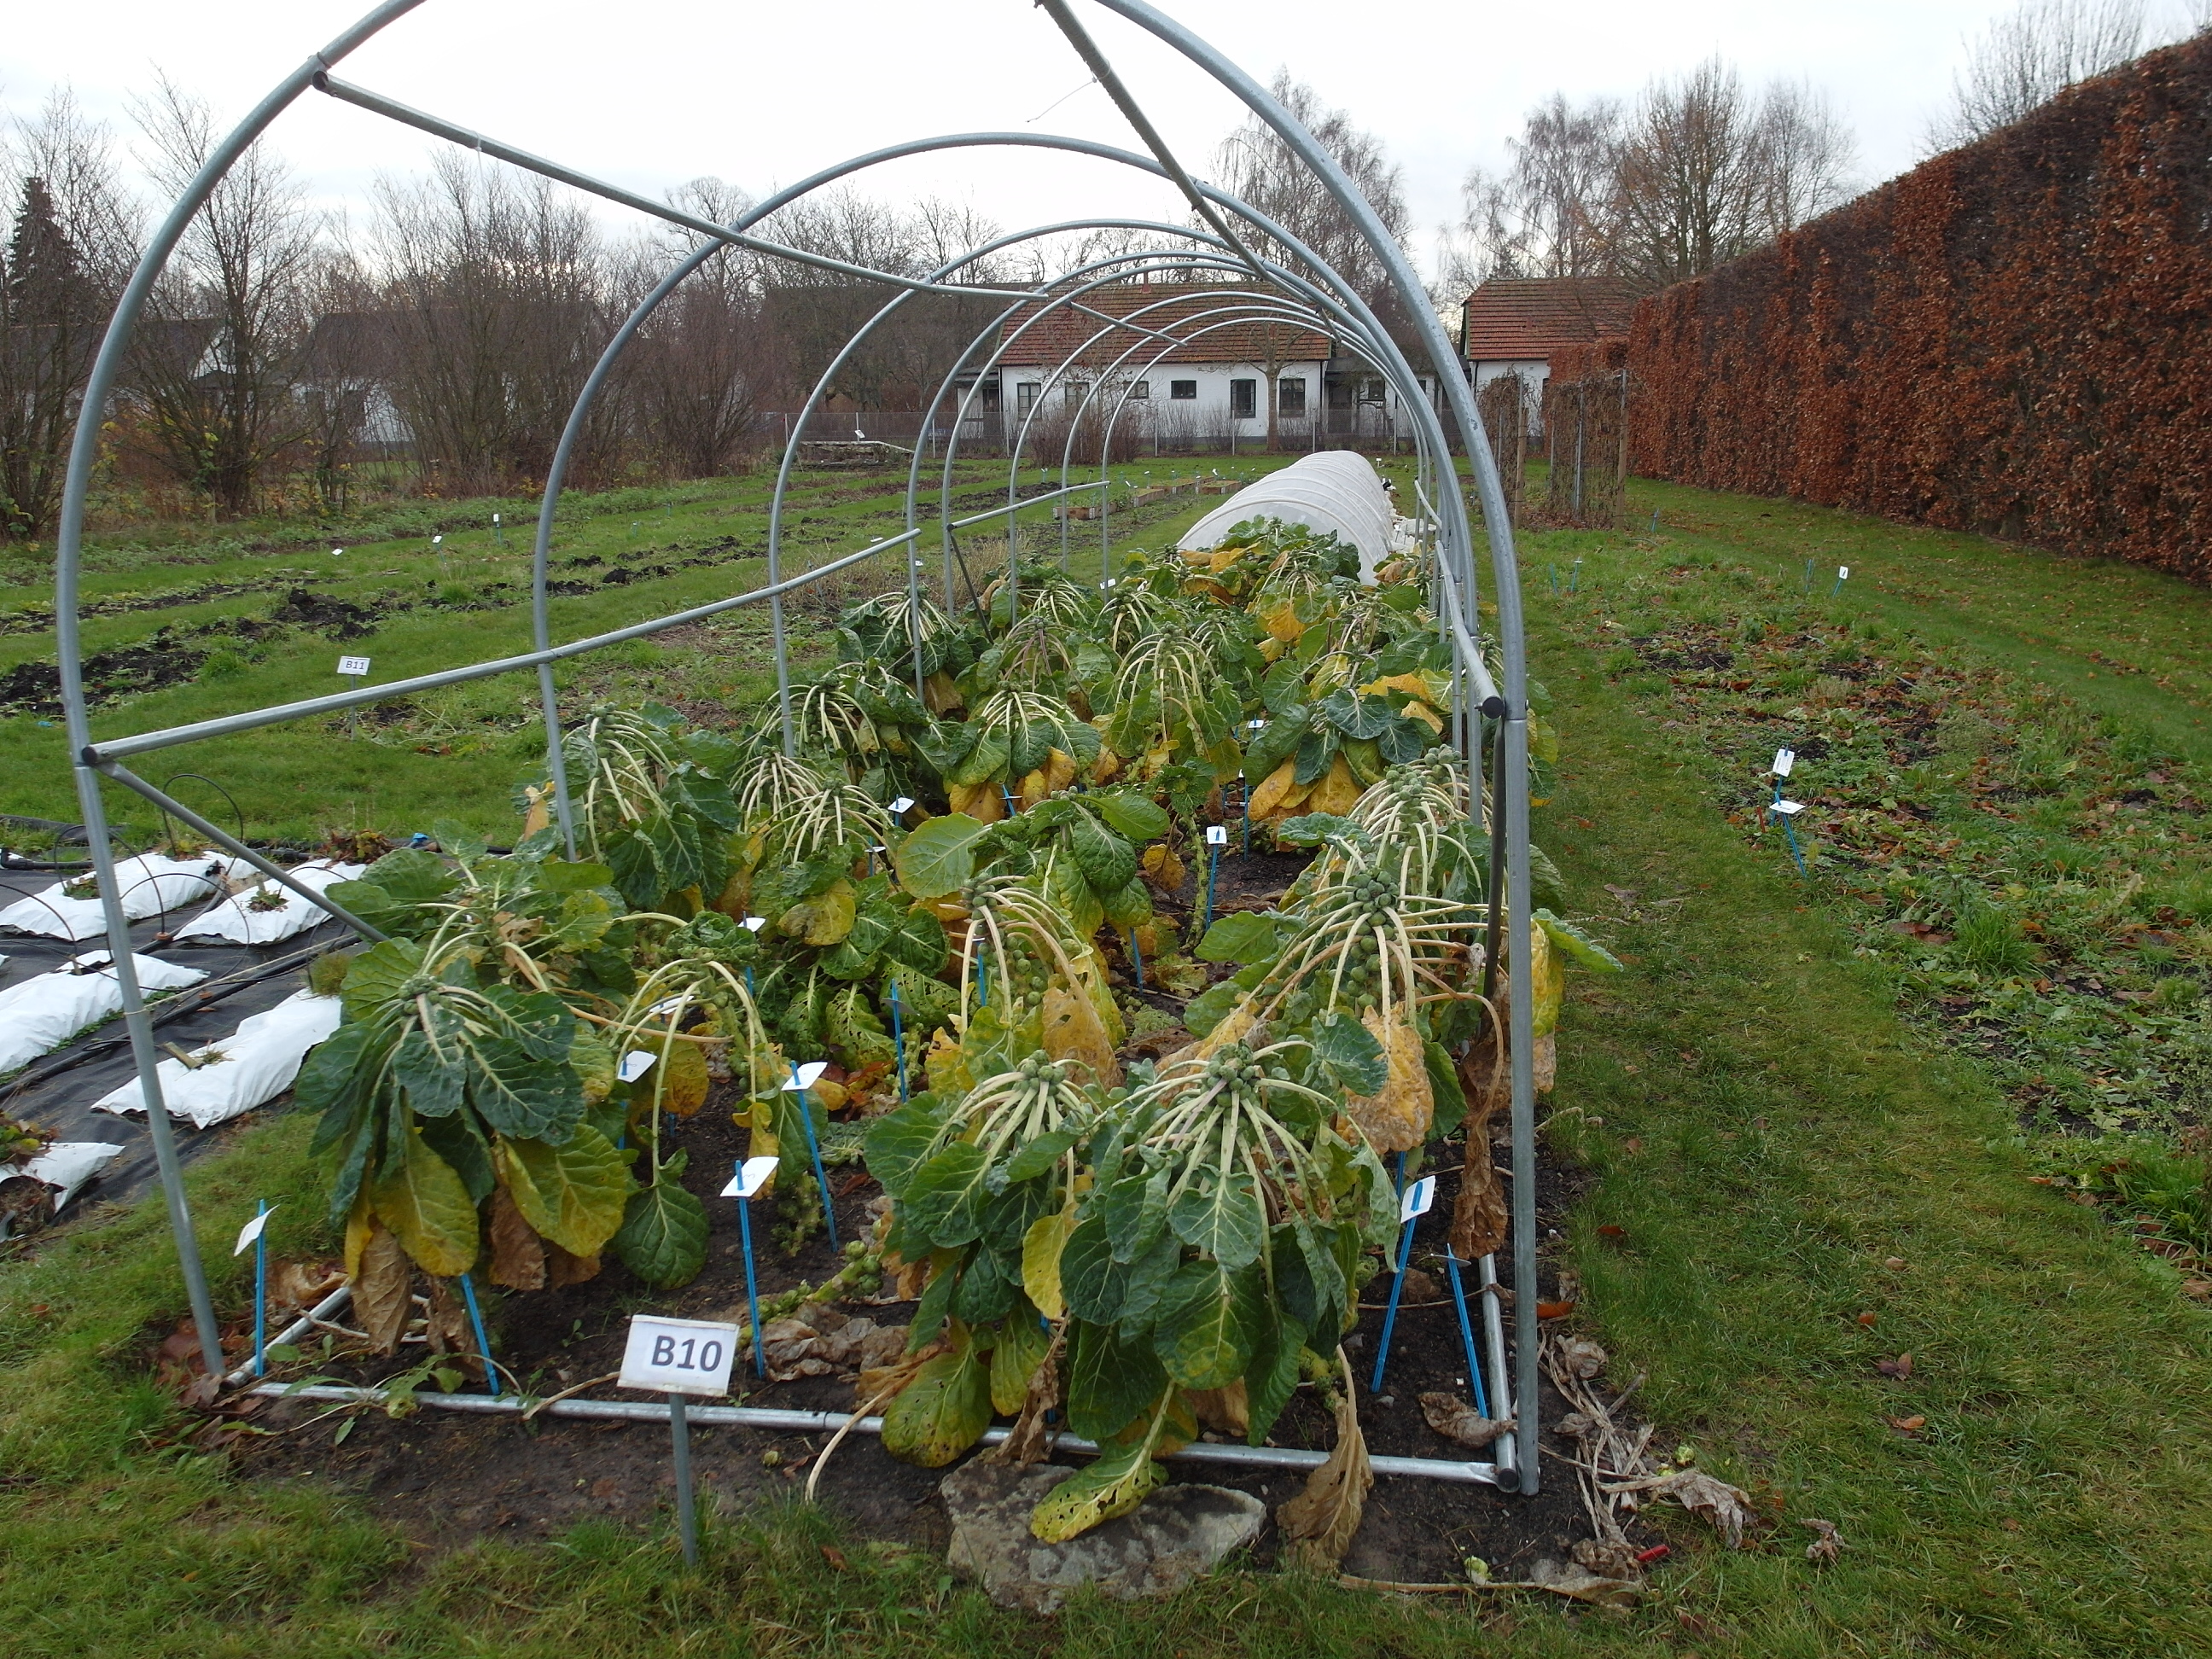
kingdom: Plantae
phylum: Tracheophyta
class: Magnoliopsida
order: Brassicales
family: Brassicaceae
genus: Brassica
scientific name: Brassica oleracea
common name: Cabbage
